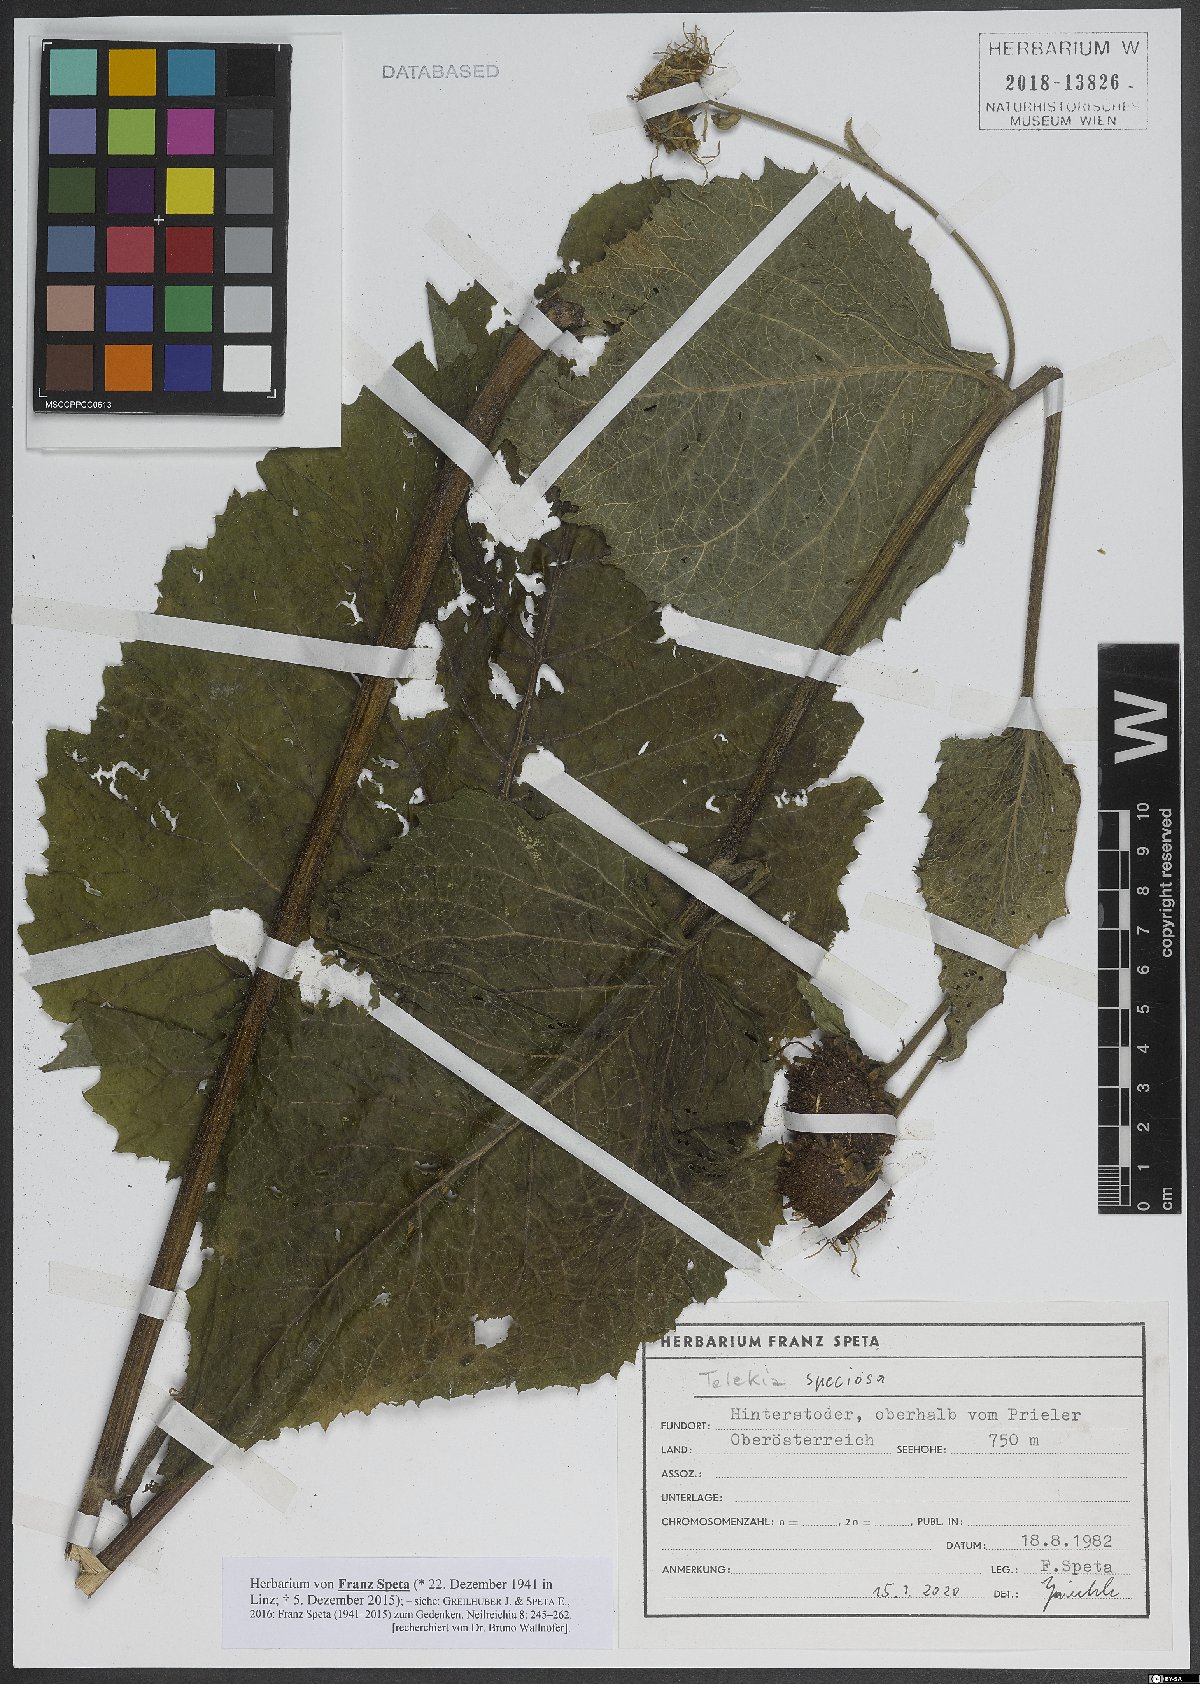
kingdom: Plantae
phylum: Tracheophyta
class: Magnoliopsida
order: Asterales
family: Asteraceae
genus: Telekia
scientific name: Telekia speciosa
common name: Yellow oxeye
